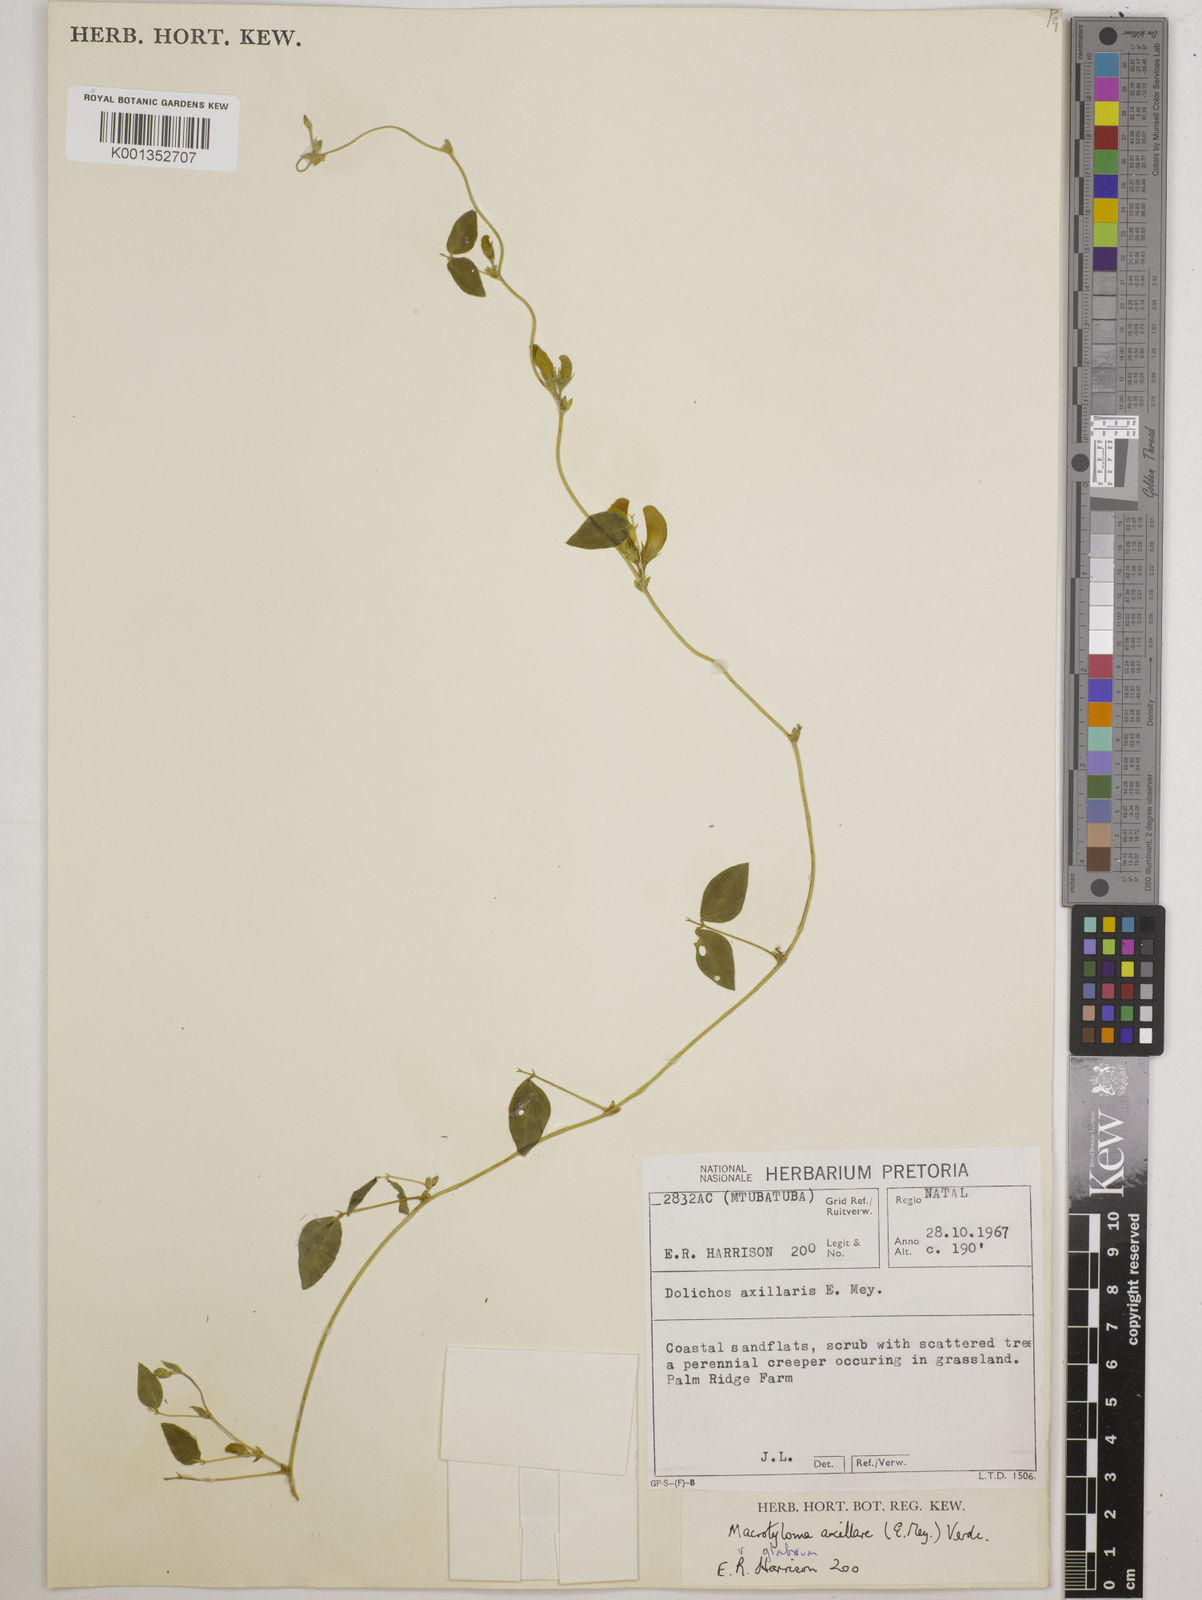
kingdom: Plantae
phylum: Tracheophyta
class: Magnoliopsida
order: Fabales
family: Fabaceae
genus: Macrotyloma
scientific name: Macrotyloma
